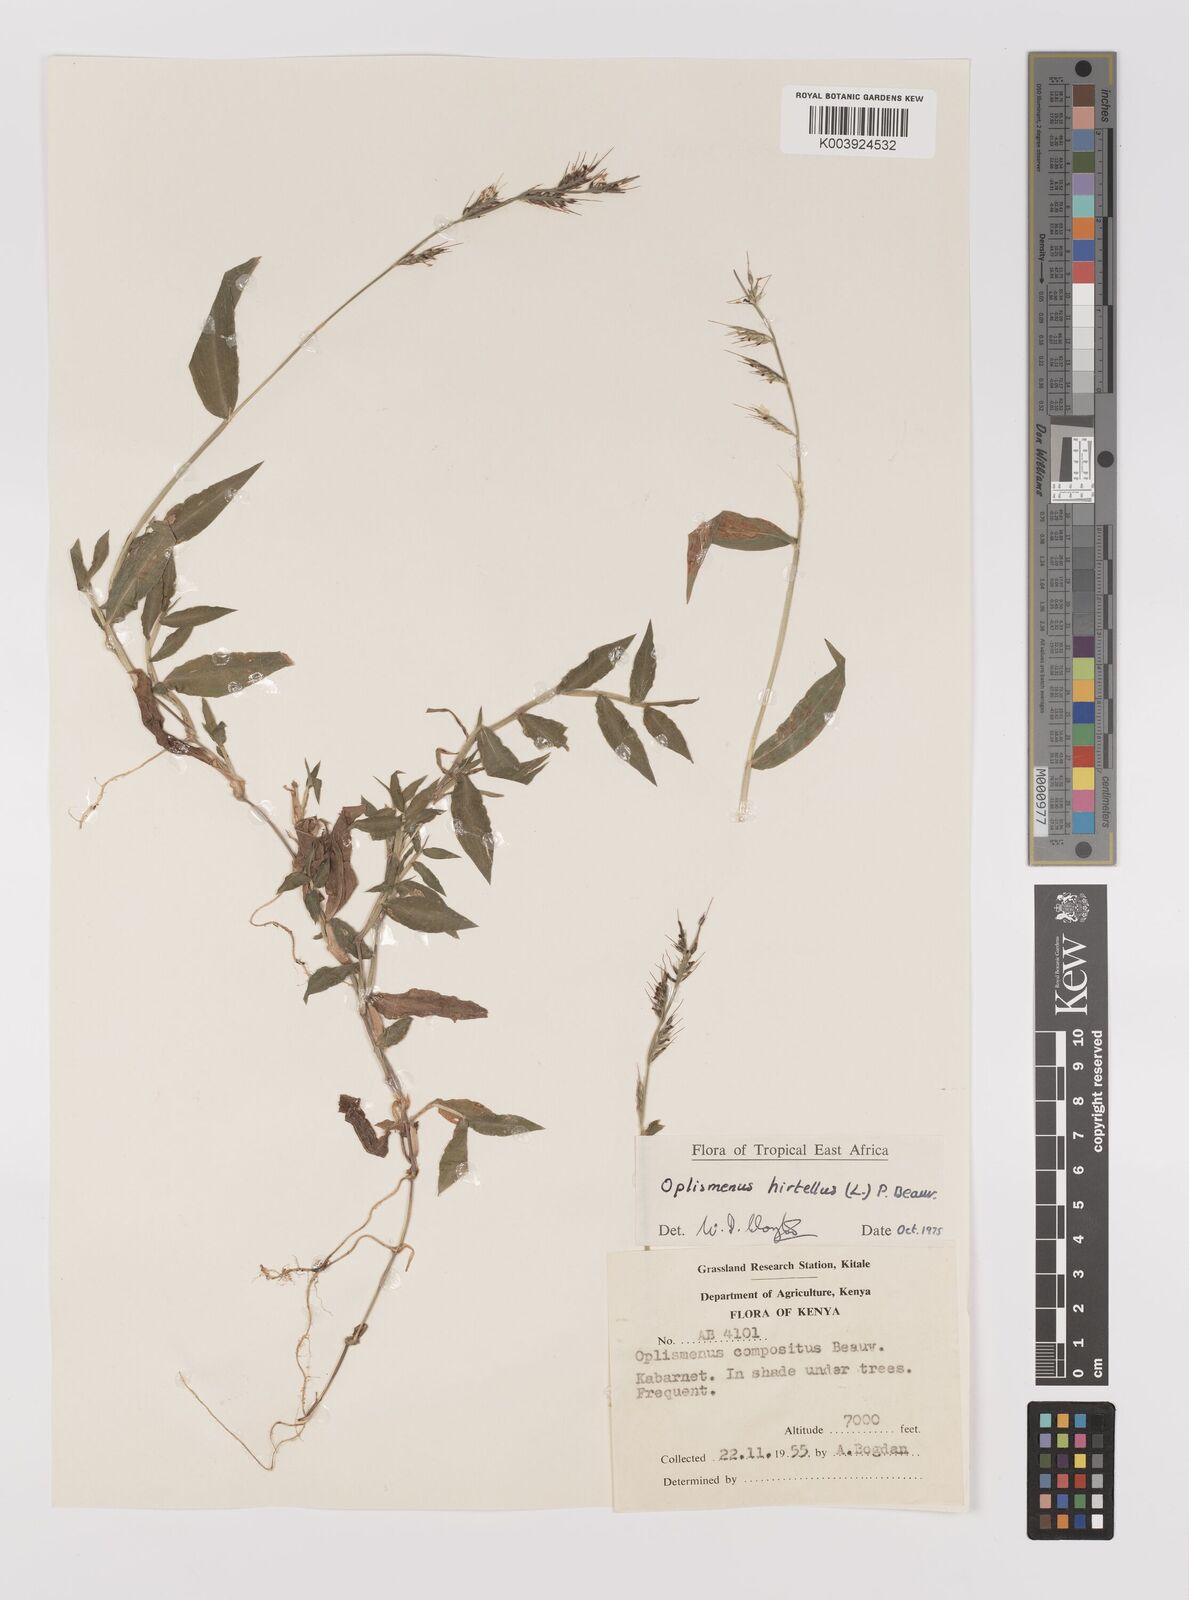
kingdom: Plantae
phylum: Tracheophyta
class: Liliopsida
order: Poales
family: Poaceae
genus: Oplismenus
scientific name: Oplismenus hirtellus
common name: Basketgrass
